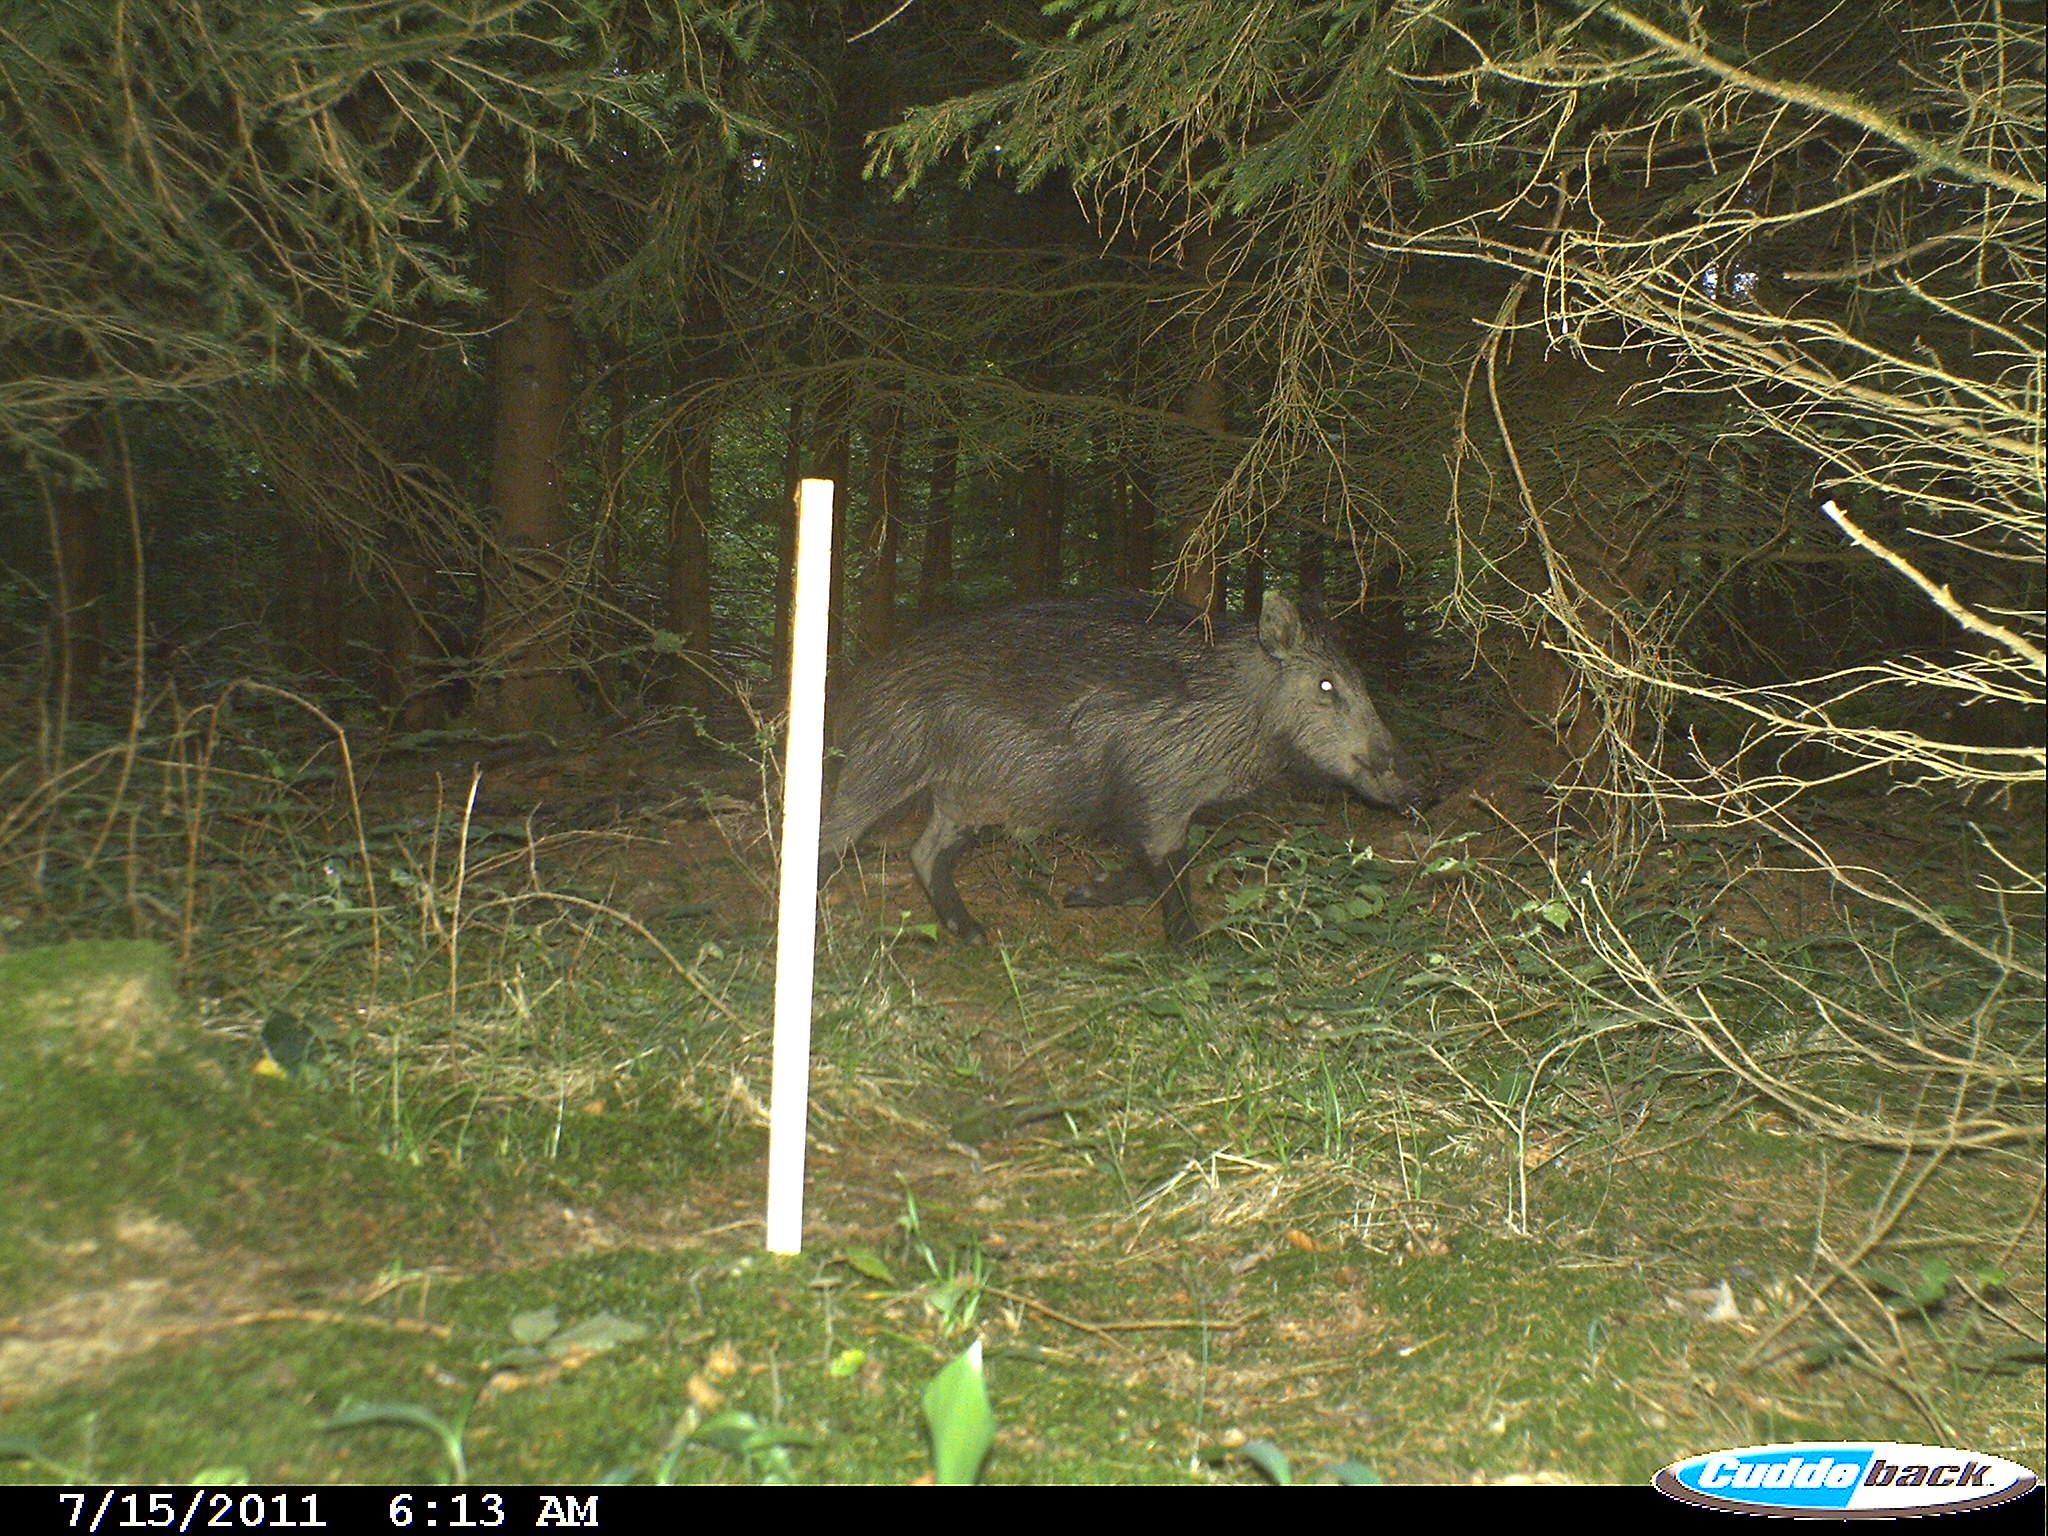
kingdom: Animalia
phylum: Chordata
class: Mammalia
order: Artiodactyla
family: Suidae
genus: Sus
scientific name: Sus scrofa
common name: Wild boar
